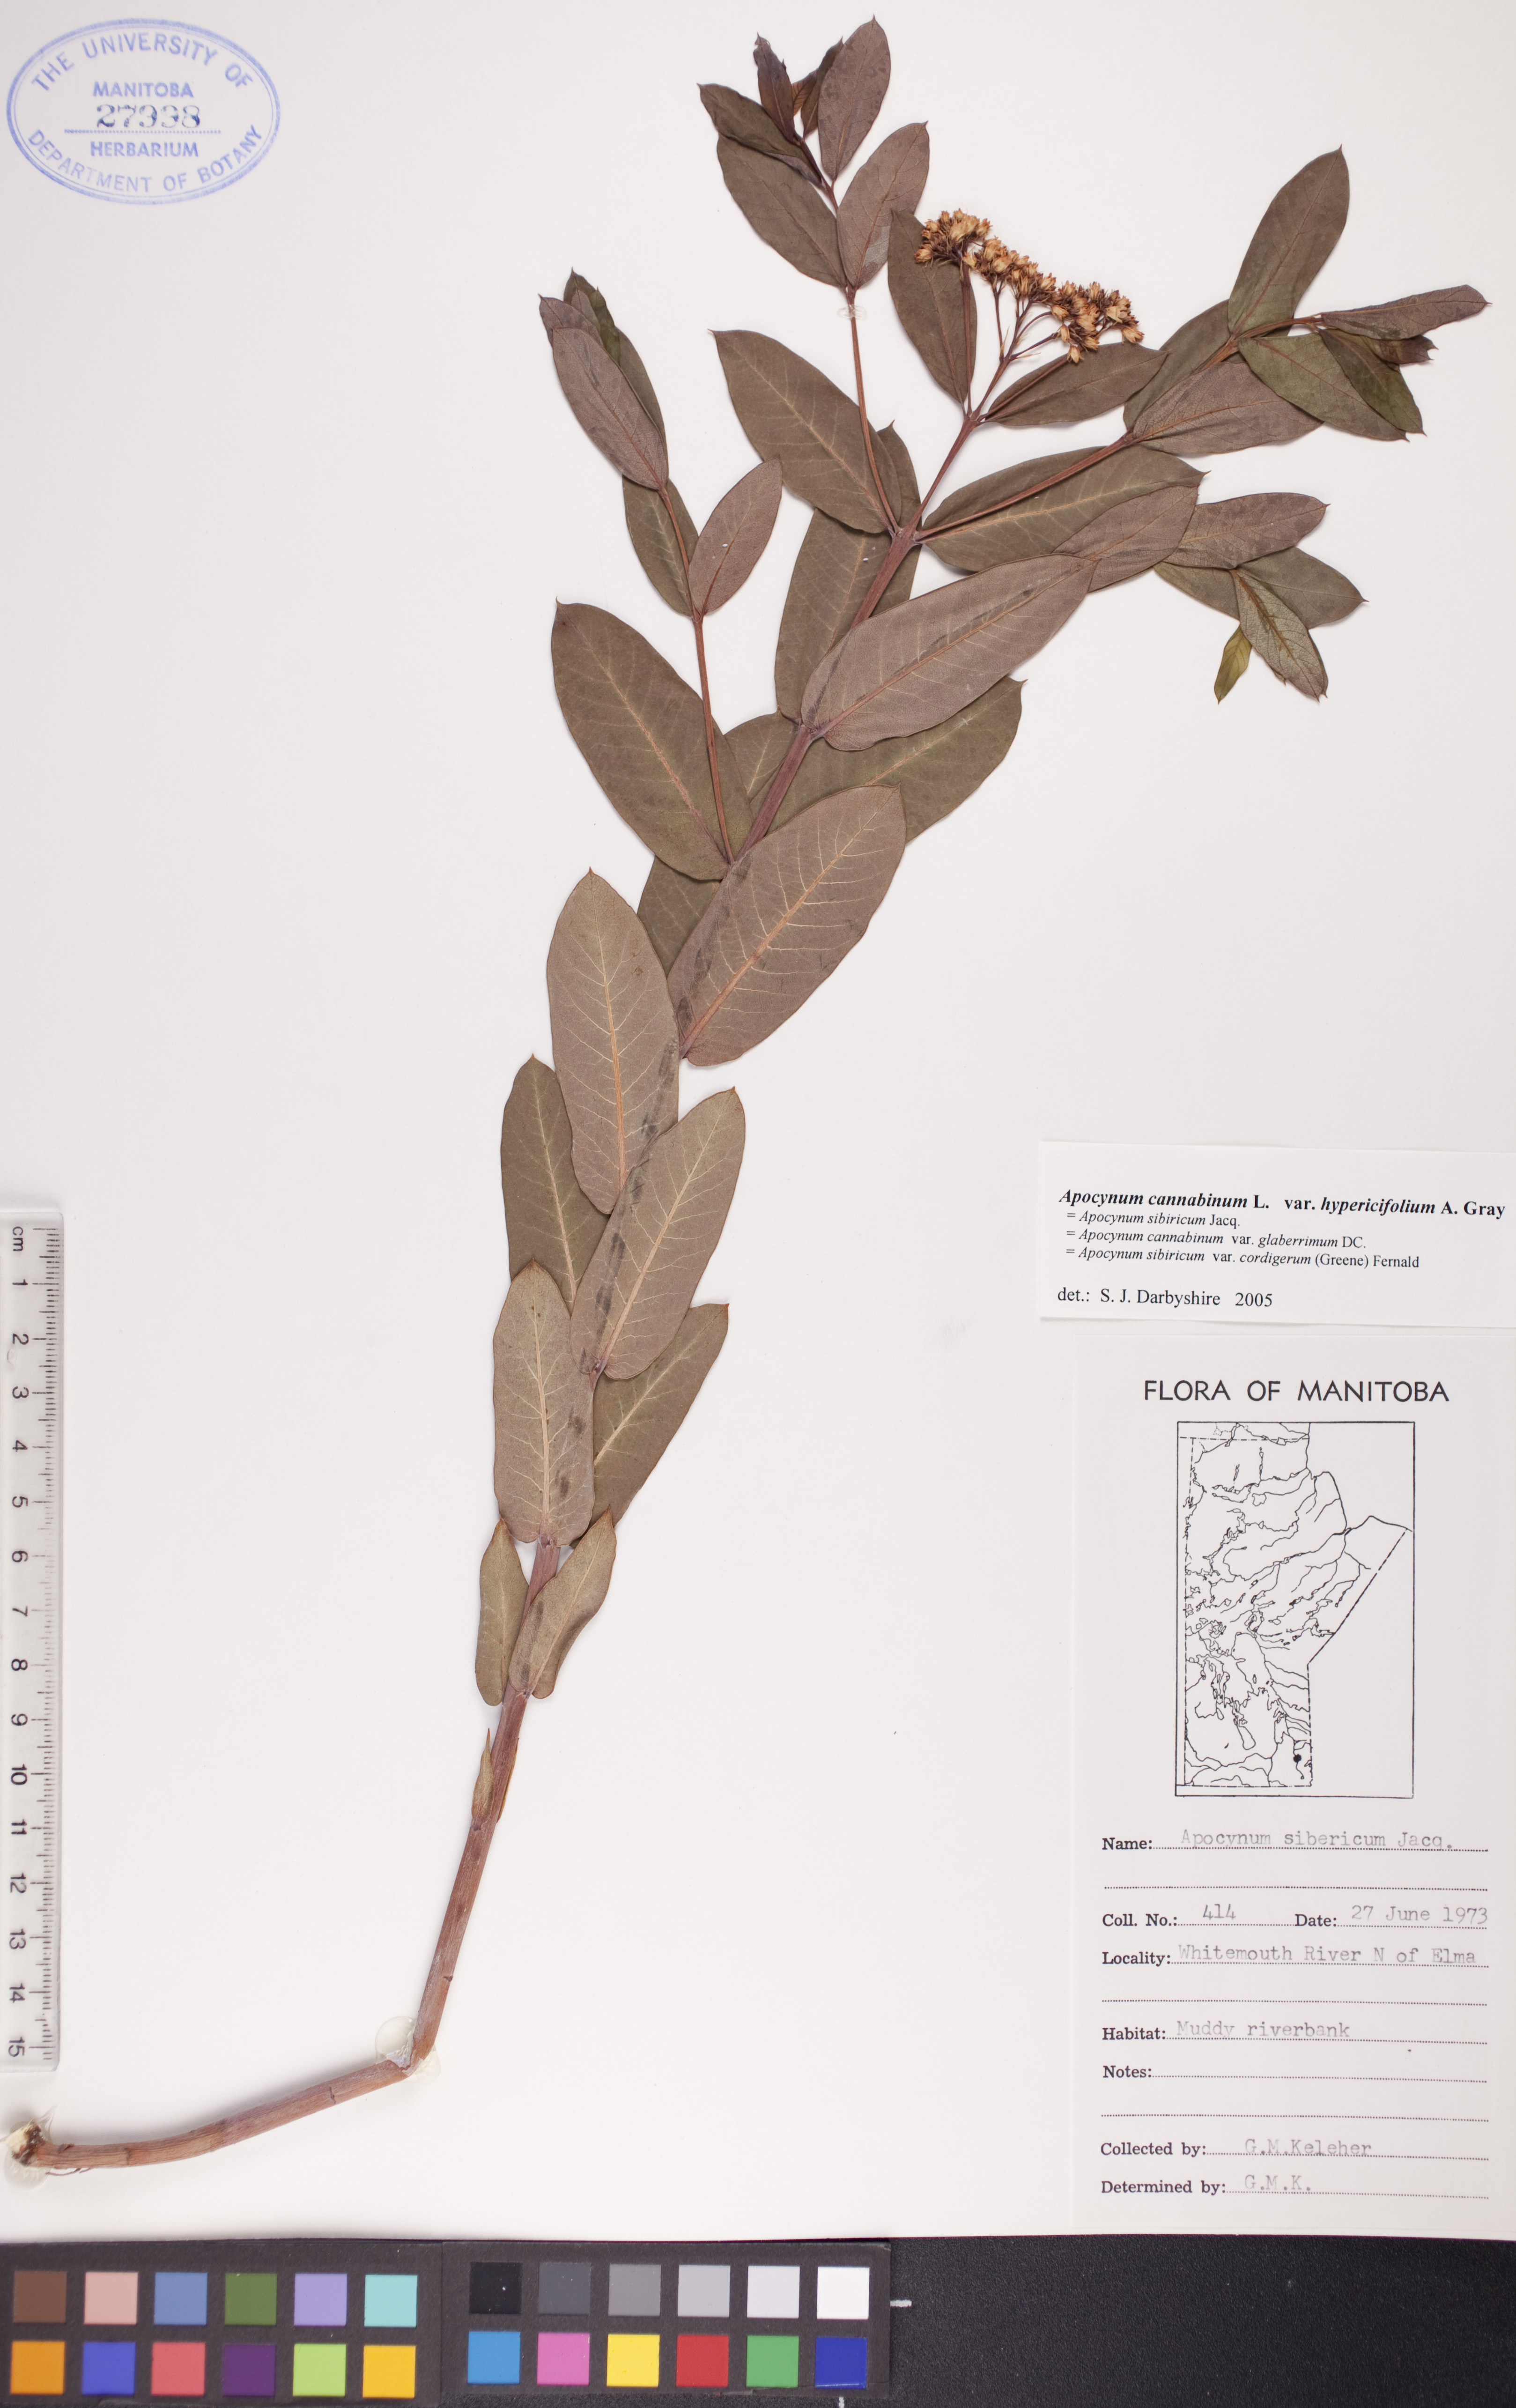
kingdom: Plantae
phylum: Tracheophyta
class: Magnoliopsida
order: Gentianales
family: Apocynaceae
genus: Apocynum
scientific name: Apocynum cannabinum
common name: Hemp dogbane
